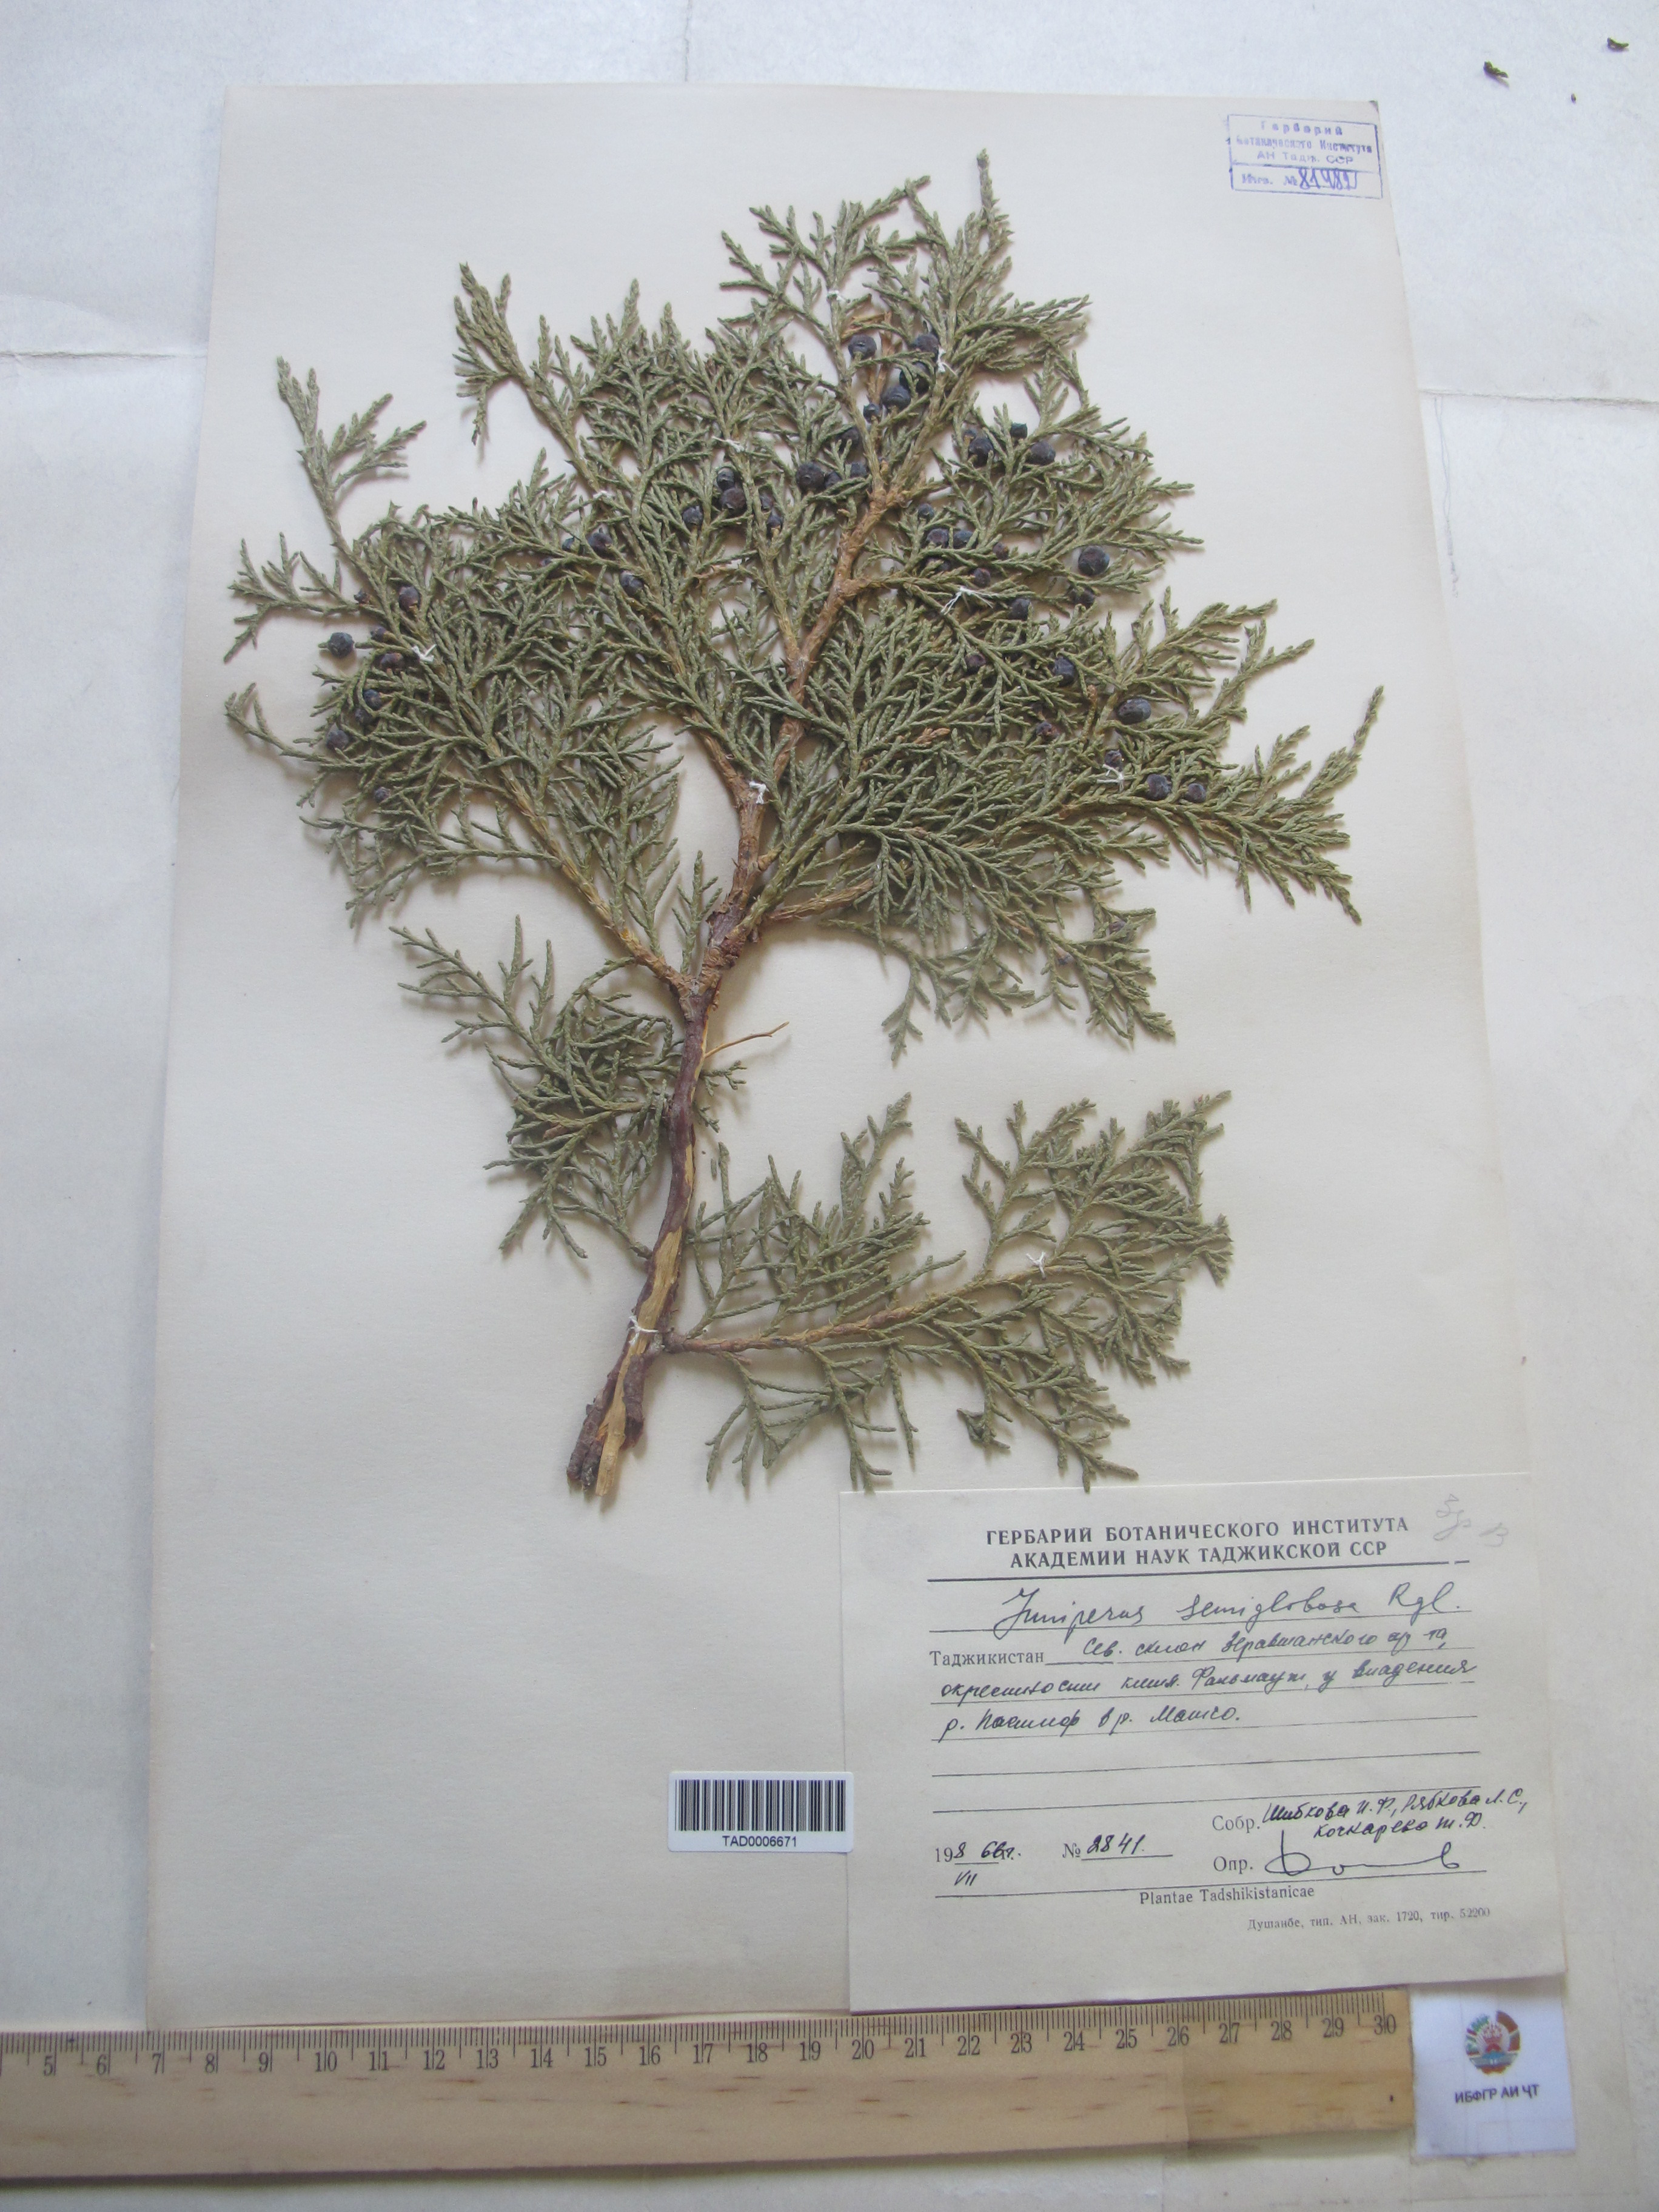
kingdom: Plantae
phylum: Tracheophyta
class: Pinopsida
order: Pinales
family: Cupressaceae
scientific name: Cupressaceae
